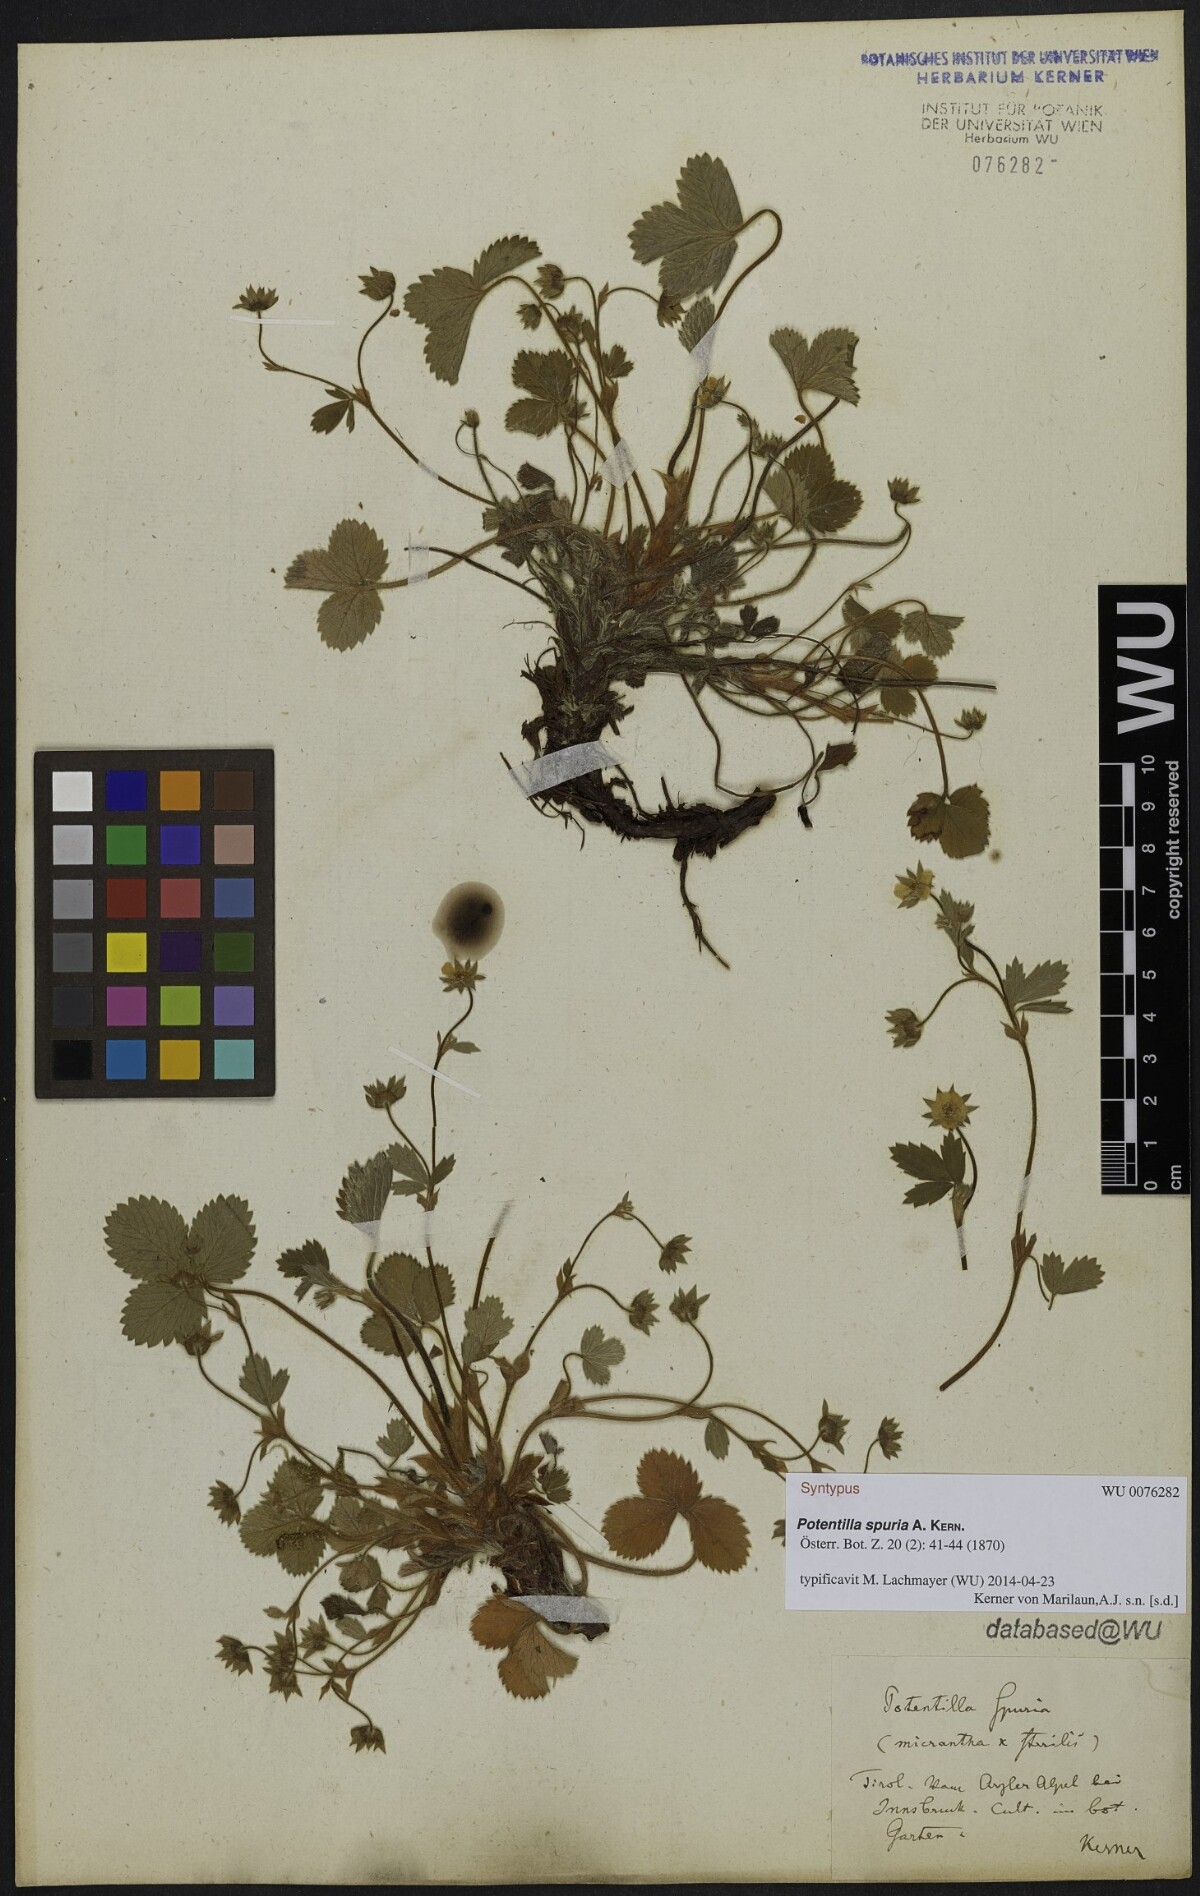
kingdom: Plantae
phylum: Tracheophyta
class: Magnoliopsida
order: Rosales
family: Rosaceae
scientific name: Rosaceae
